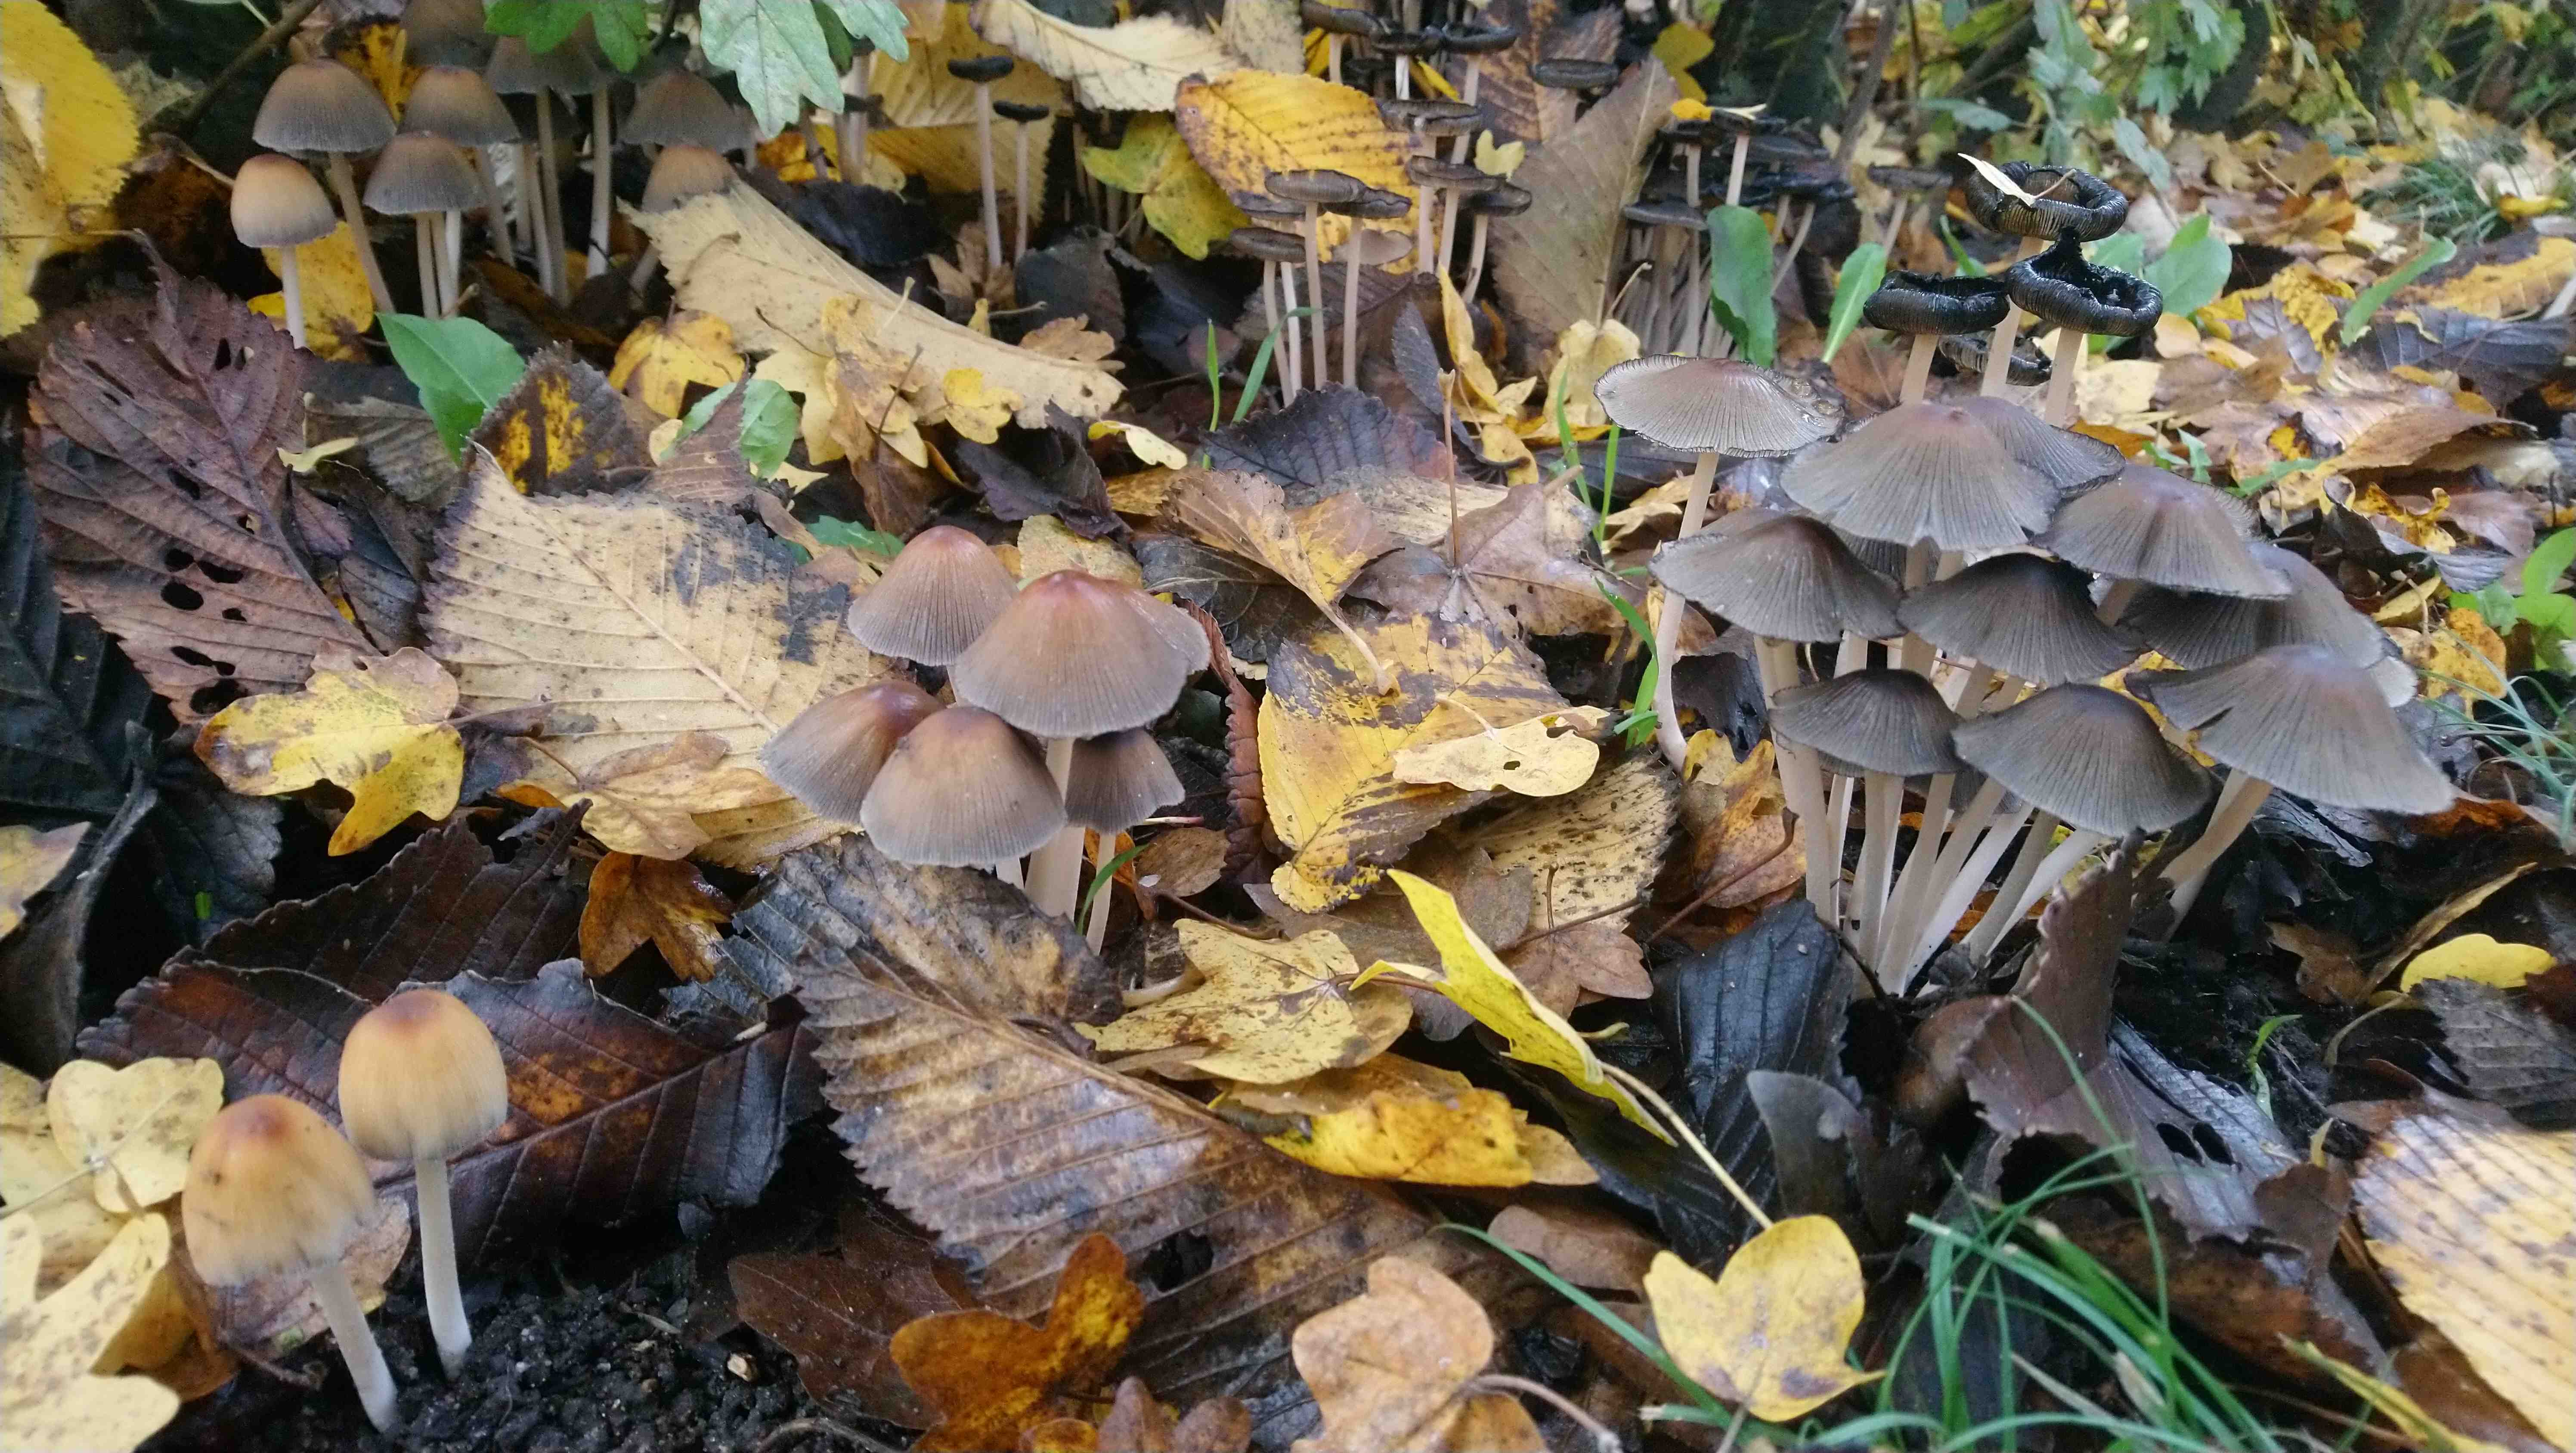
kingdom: Fungi
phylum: Basidiomycota
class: Agaricomycetes
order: Agaricales
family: Psathyrellaceae
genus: Coprinellus
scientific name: Coprinellus micaceus
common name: glimmer-blækhat
